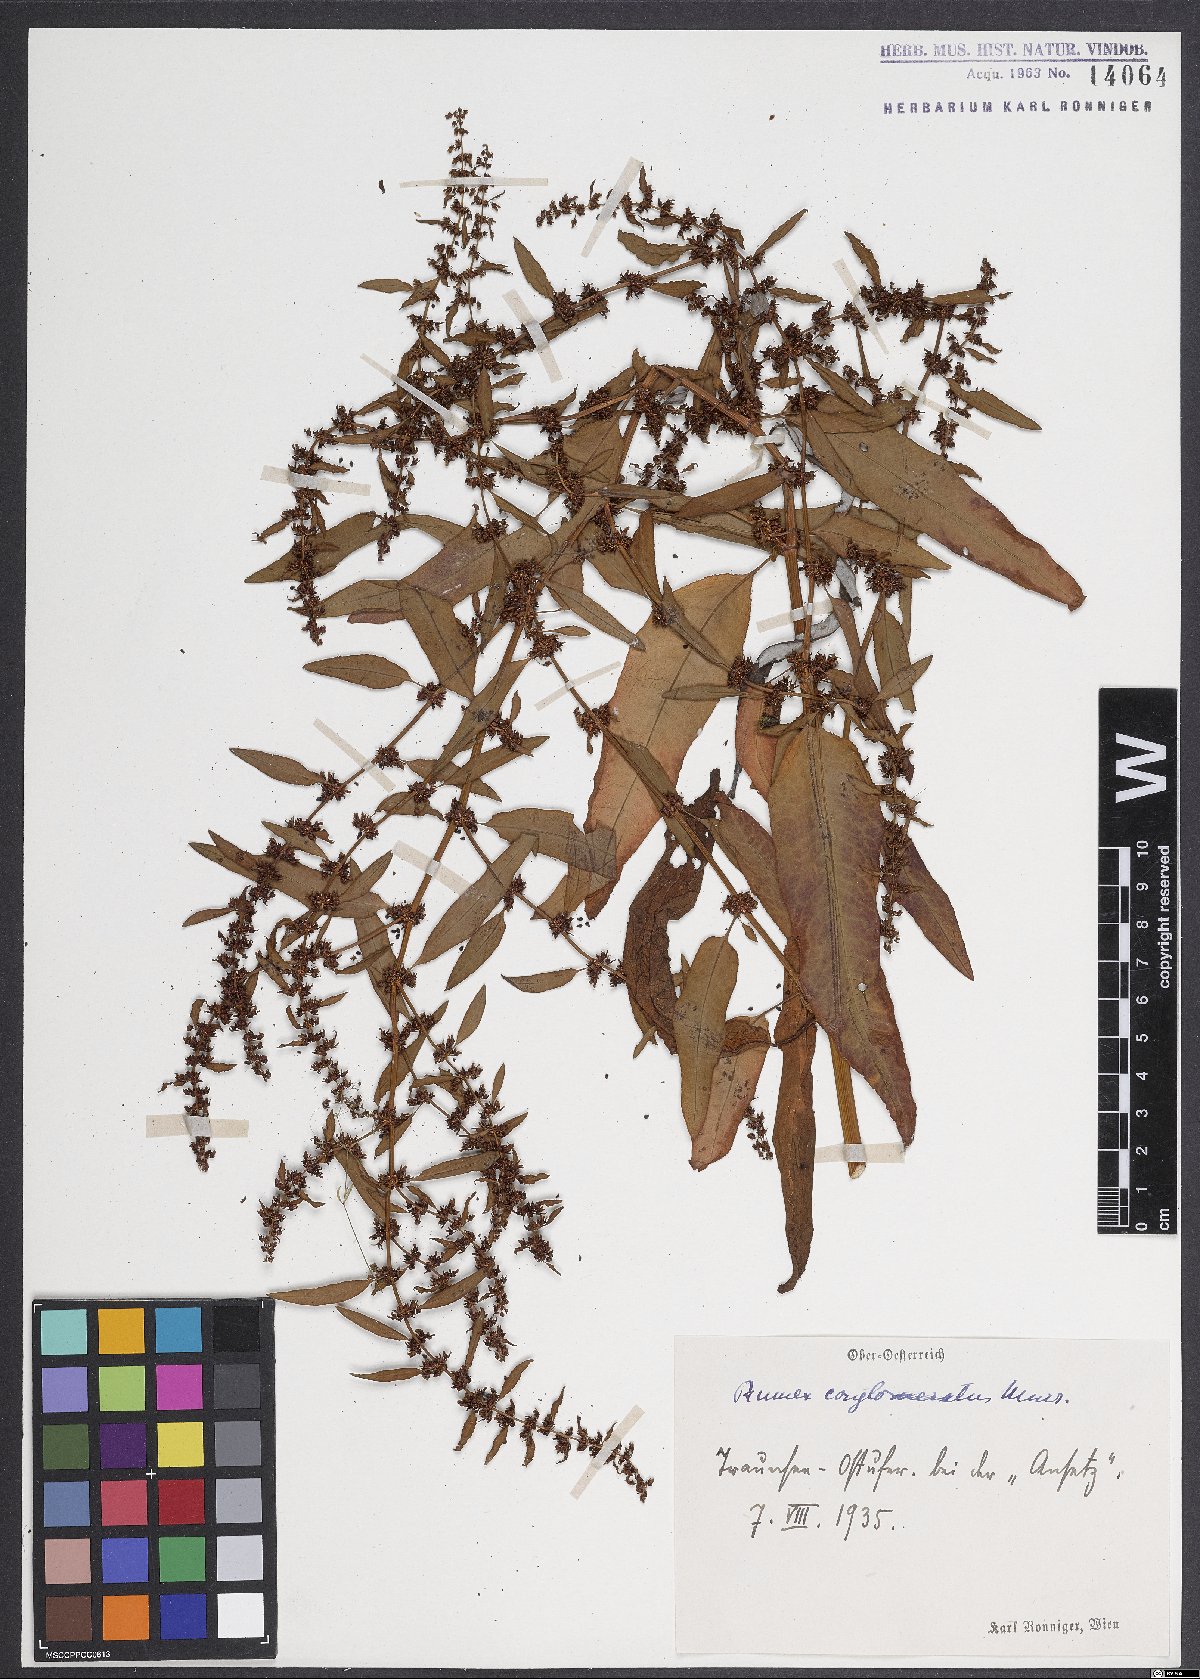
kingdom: Plantae
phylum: Tracheophyta
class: Magnoliopsida
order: Caryophyllales
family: Polygonaceae
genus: Rumex
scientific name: Rumex conglomeratus
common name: Clustered dock
